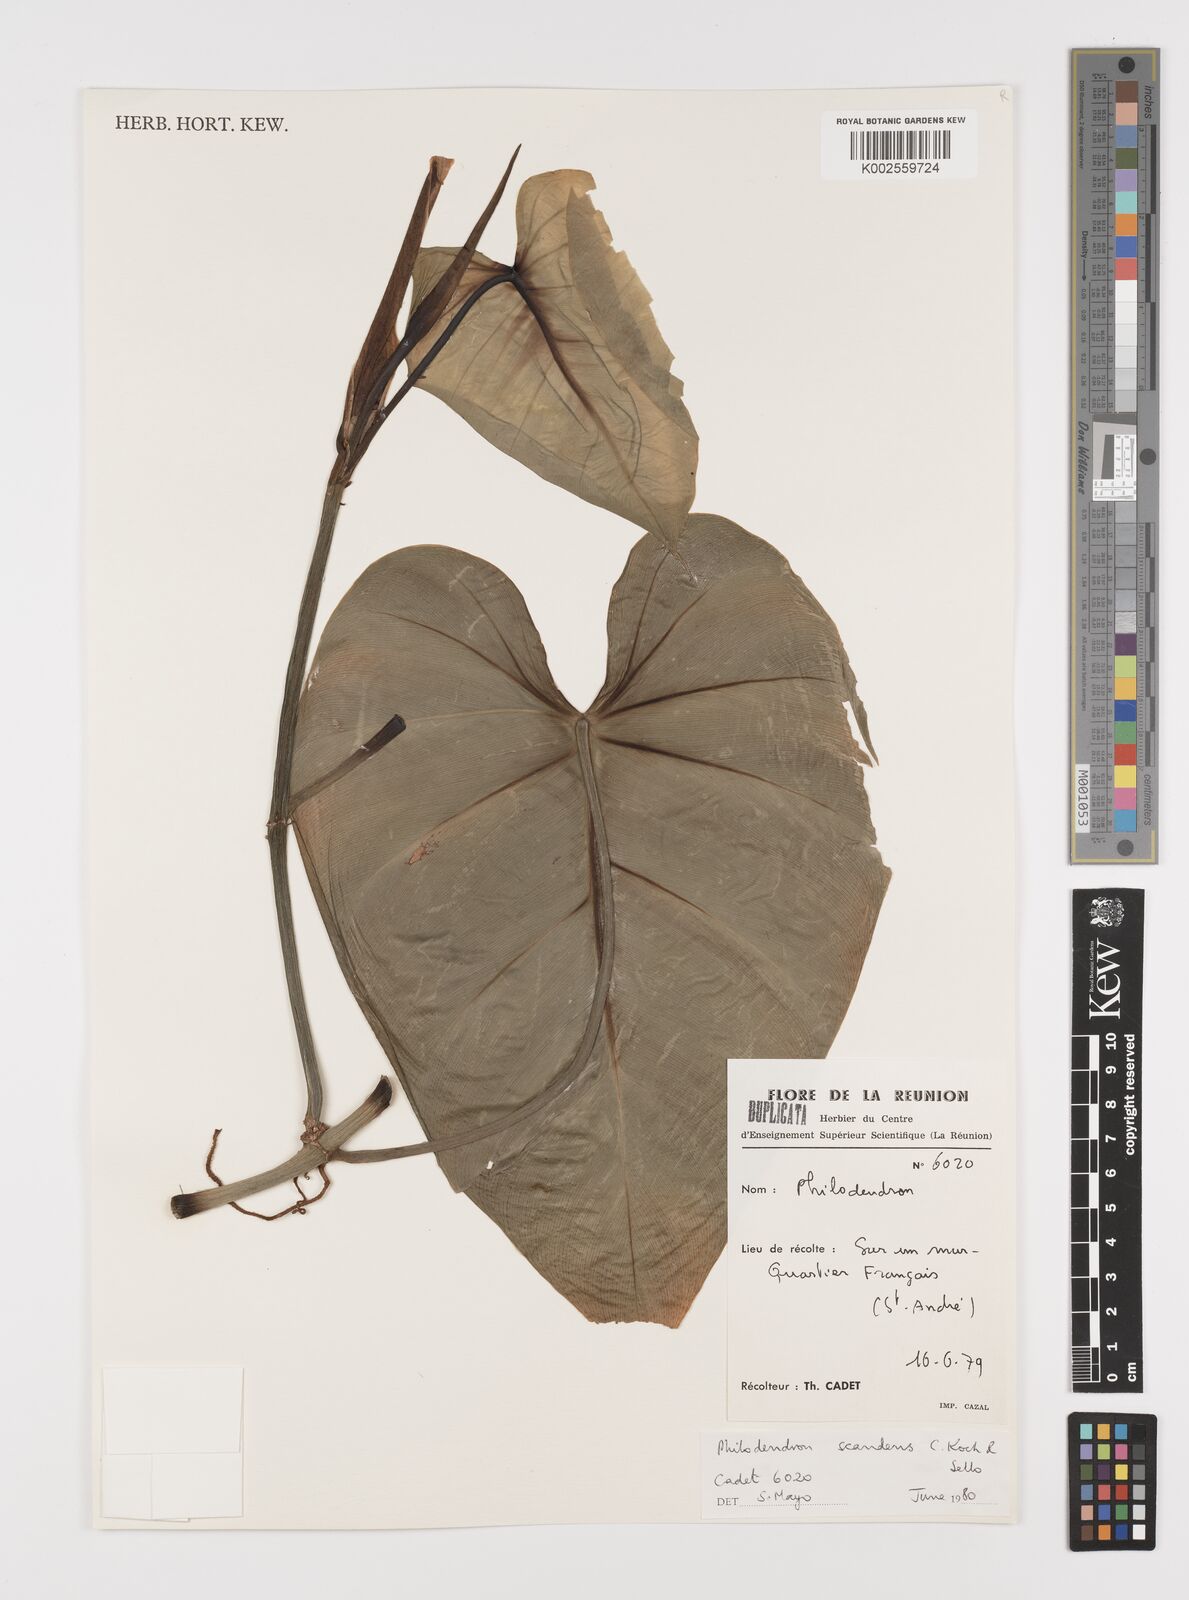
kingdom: Plantae
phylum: Tracheophyta
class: Liliopsida
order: Alismatales
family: Araceae
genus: Philodendron
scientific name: Philodendron hederaceum
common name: Vilevine
